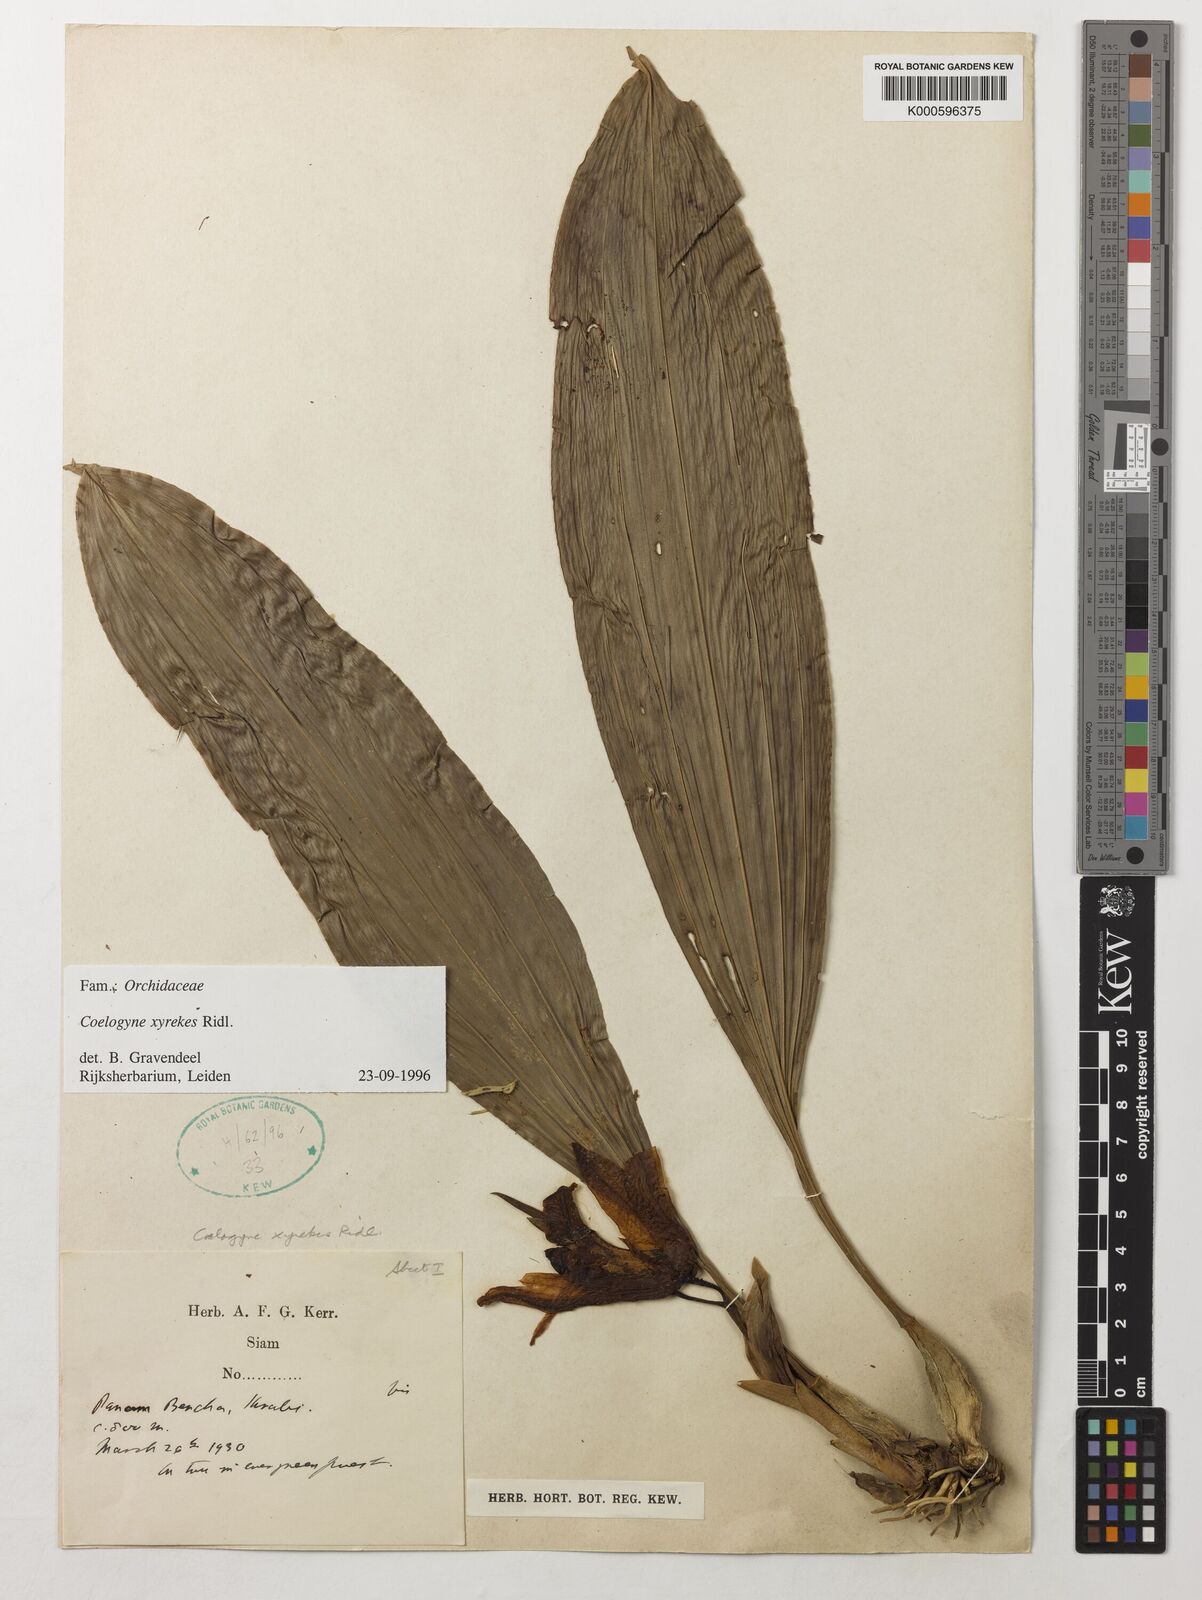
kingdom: Plantae
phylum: Tracheophyta
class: Liliopsida
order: Asparagales
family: Orchidaceae
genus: Coelogyne
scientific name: Coelogyne xyrekes
